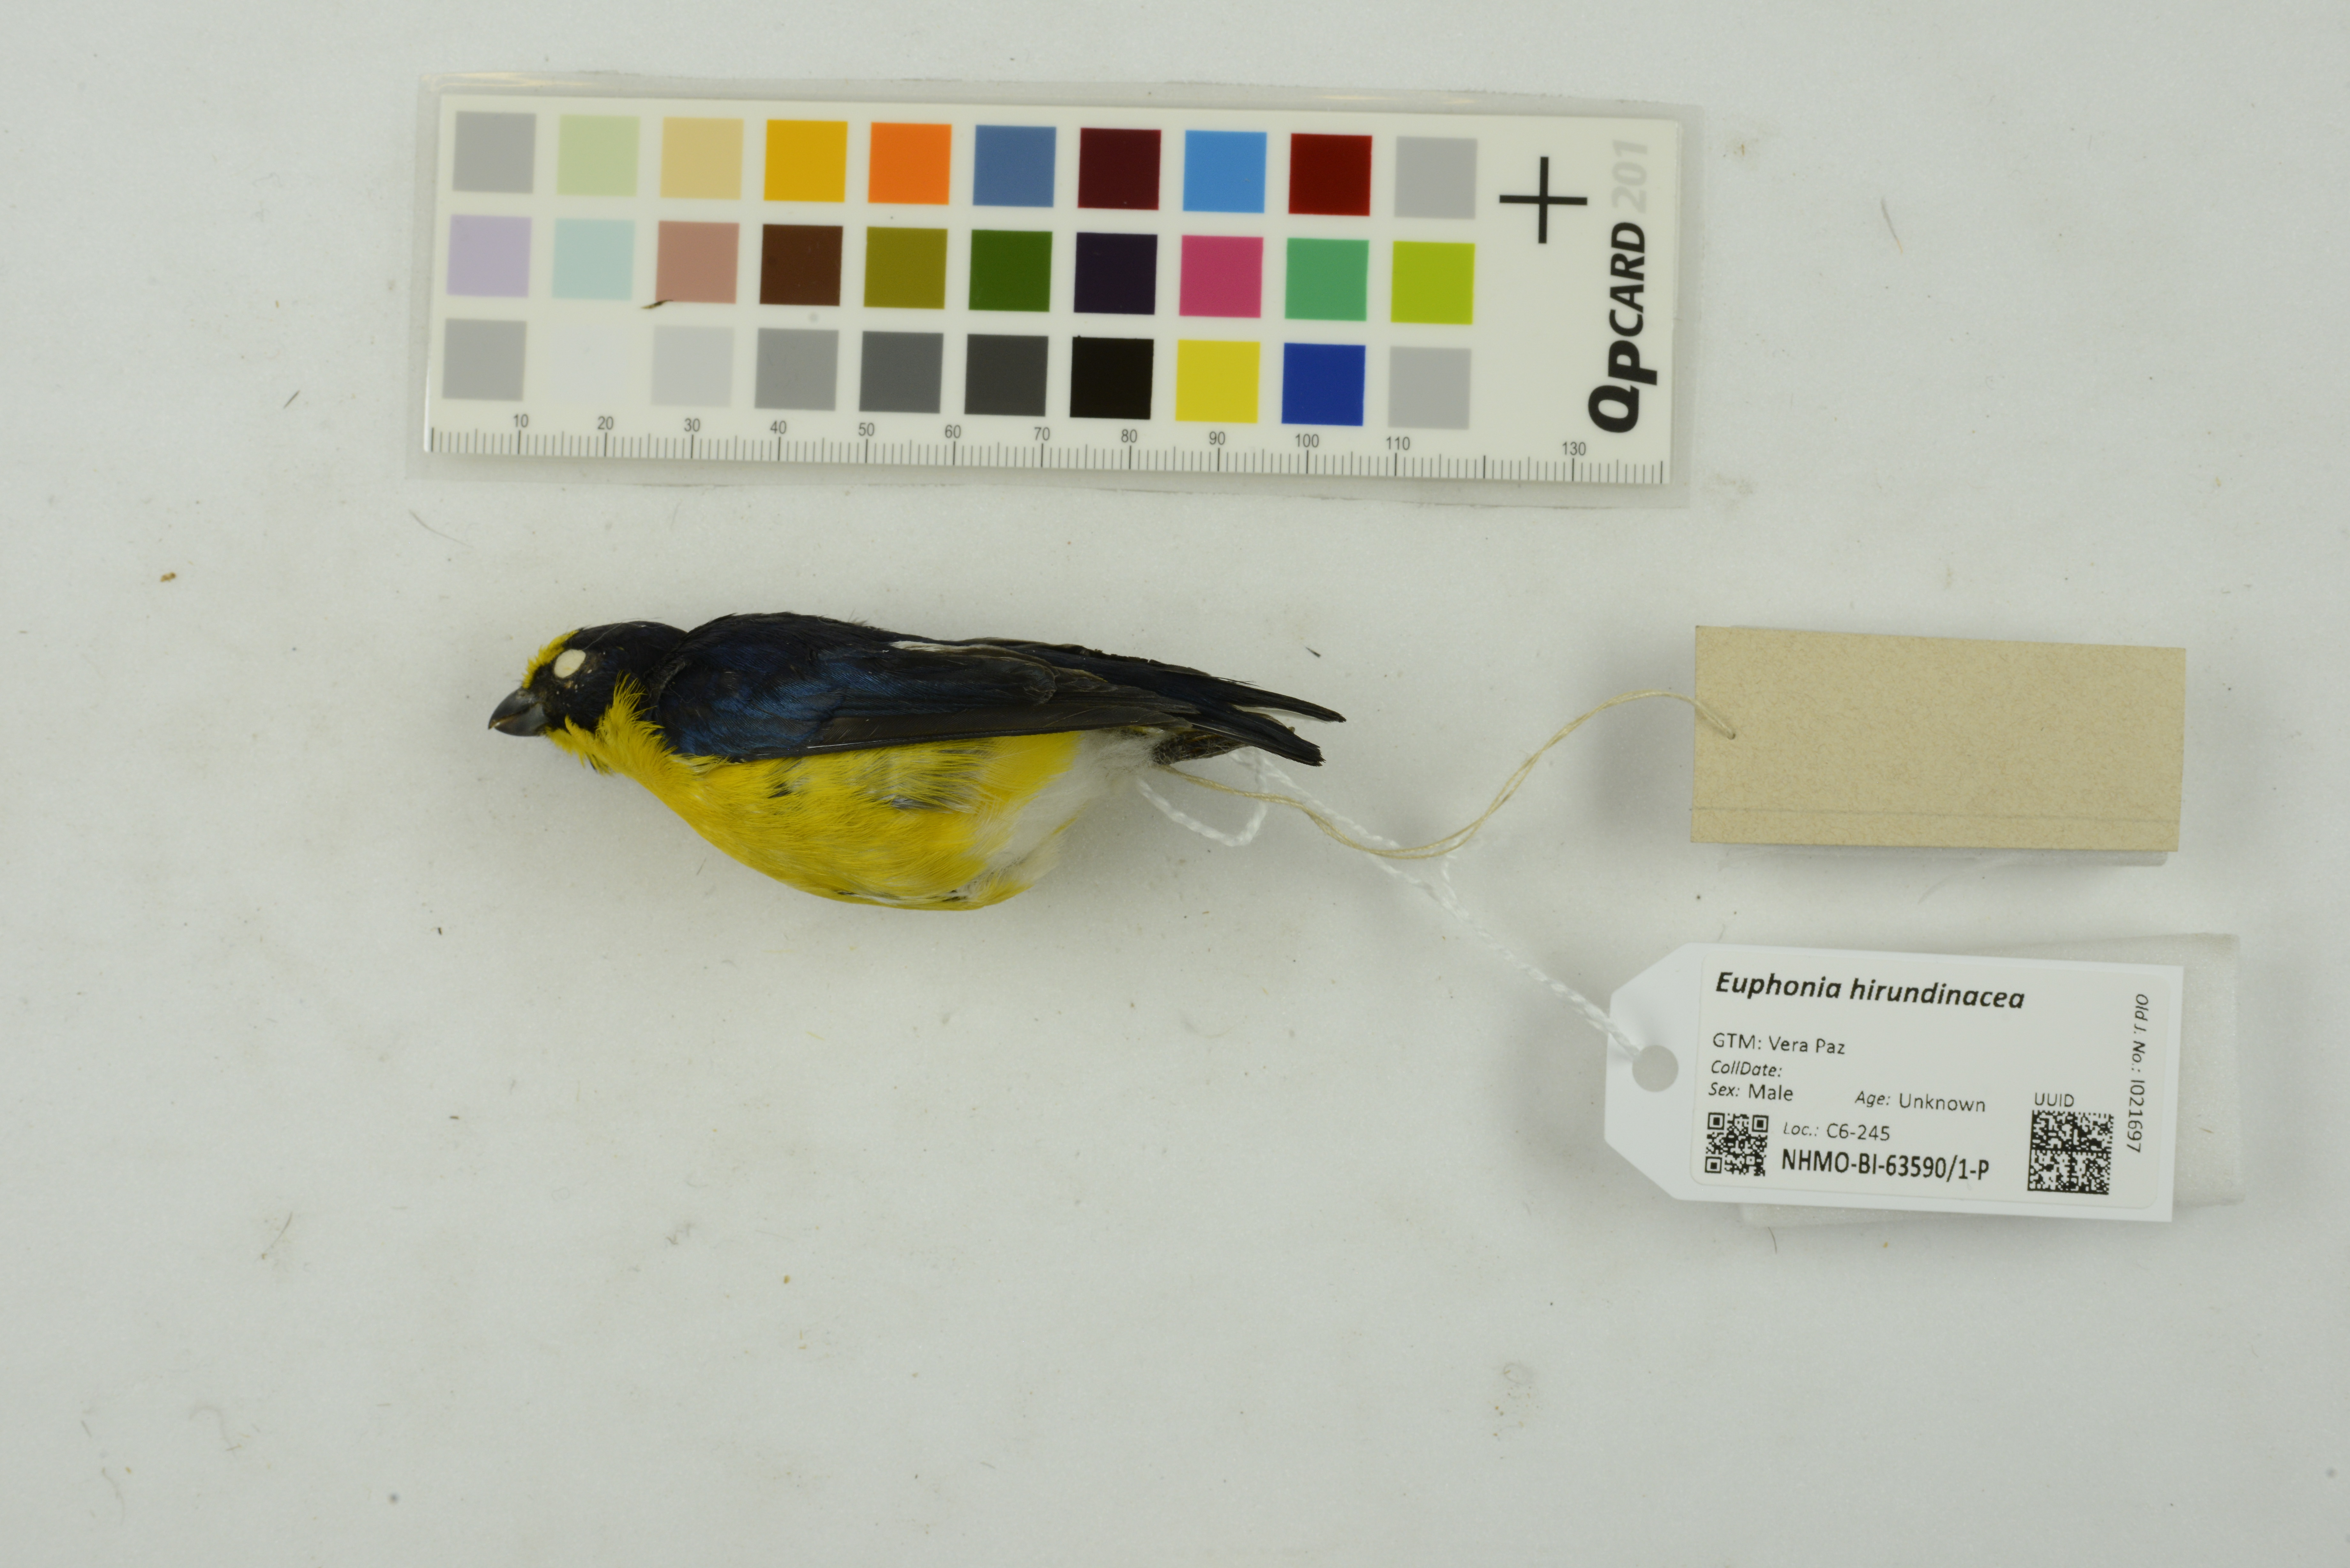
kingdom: Animalia
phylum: Chordata
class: Aves
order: Passeriformes
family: Fringillidae
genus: Euphonia
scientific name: Euphonia hirundinacea
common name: Yellow-throated euphonia
